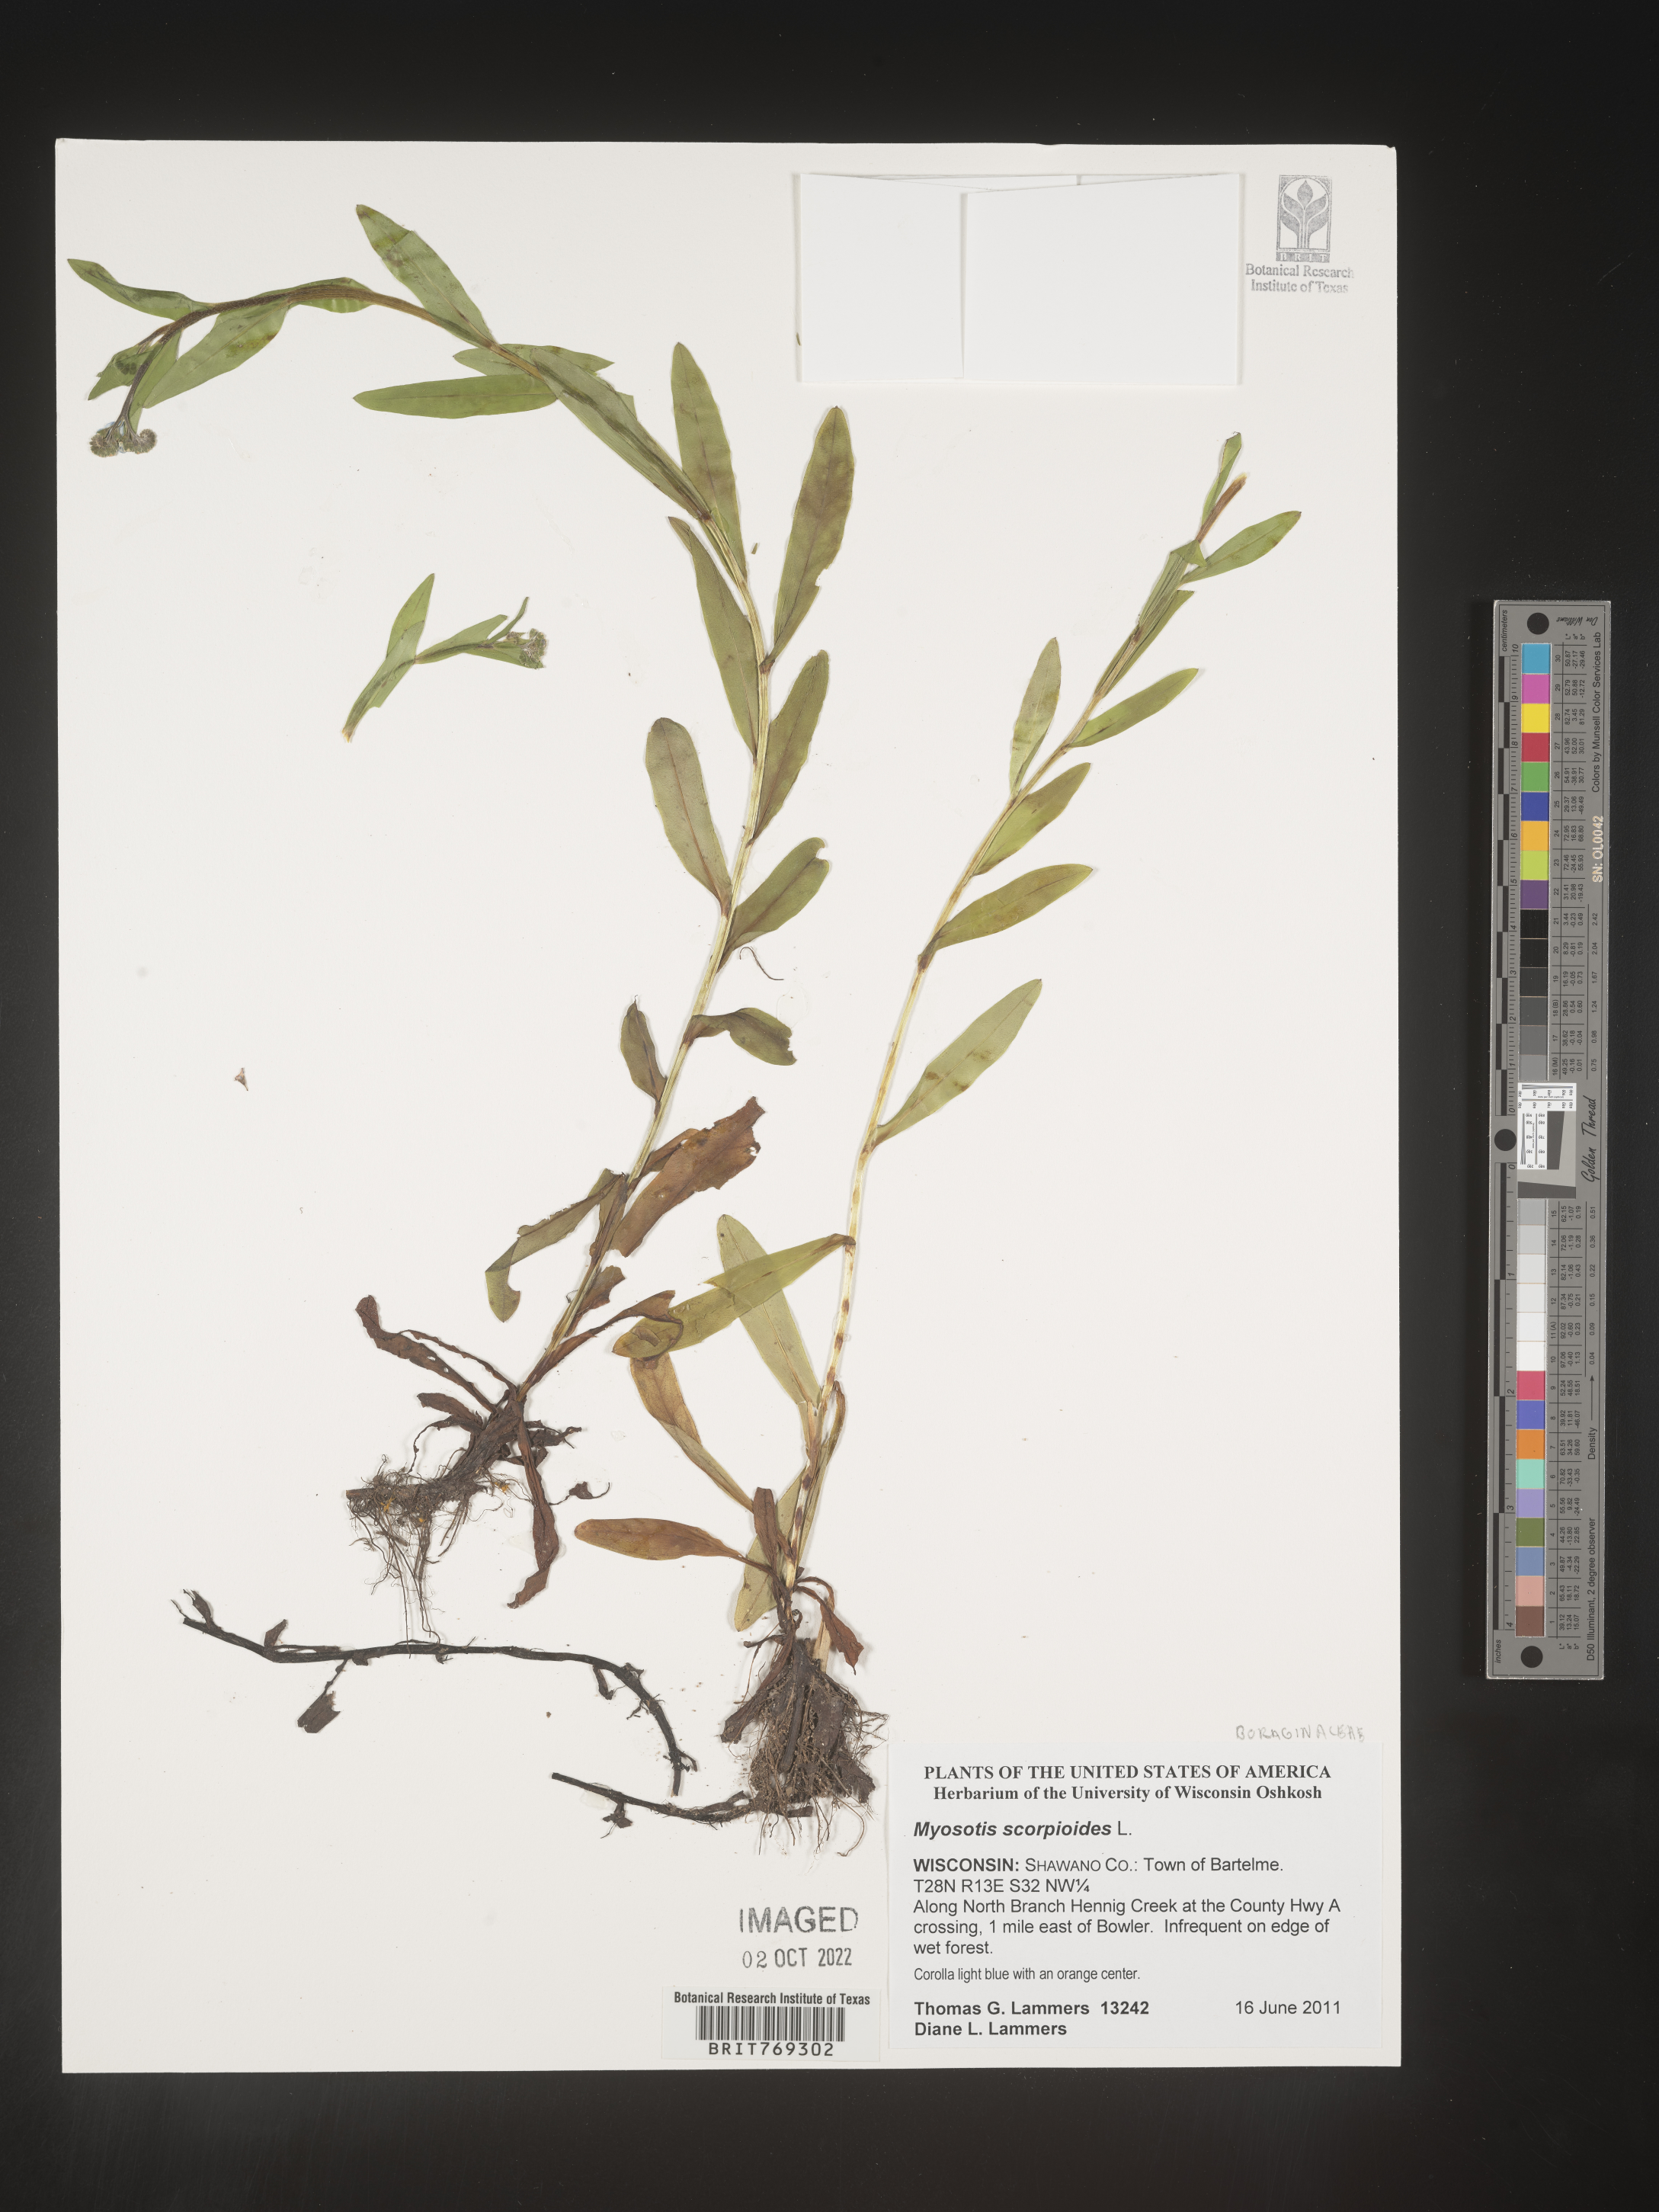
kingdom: Plantae
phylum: Tracheophyta
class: Magnoliopsida
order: Boraginales
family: Boraginaceae
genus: Myosotis
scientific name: Myosotis scorpioides
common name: Water forget-me-not
